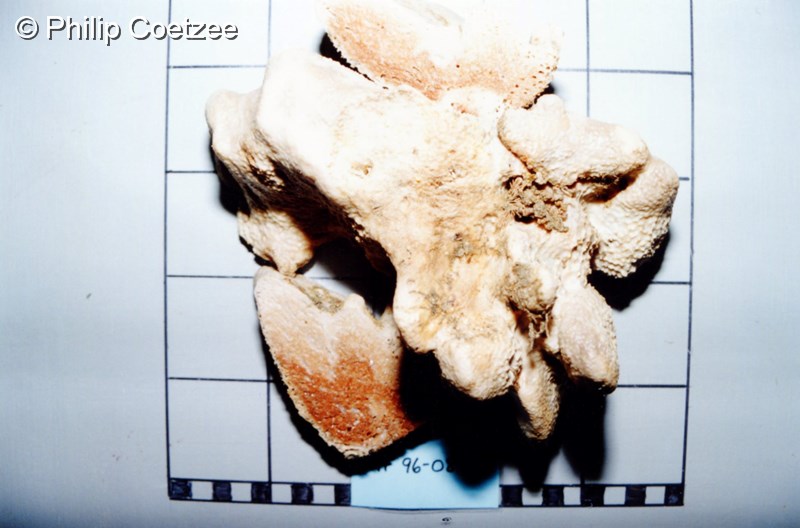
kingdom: Animalia
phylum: Porifera
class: Demospongiae
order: Dictyoceratida
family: Irciniidae
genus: Psammocinia
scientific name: Psammocinia compacta
